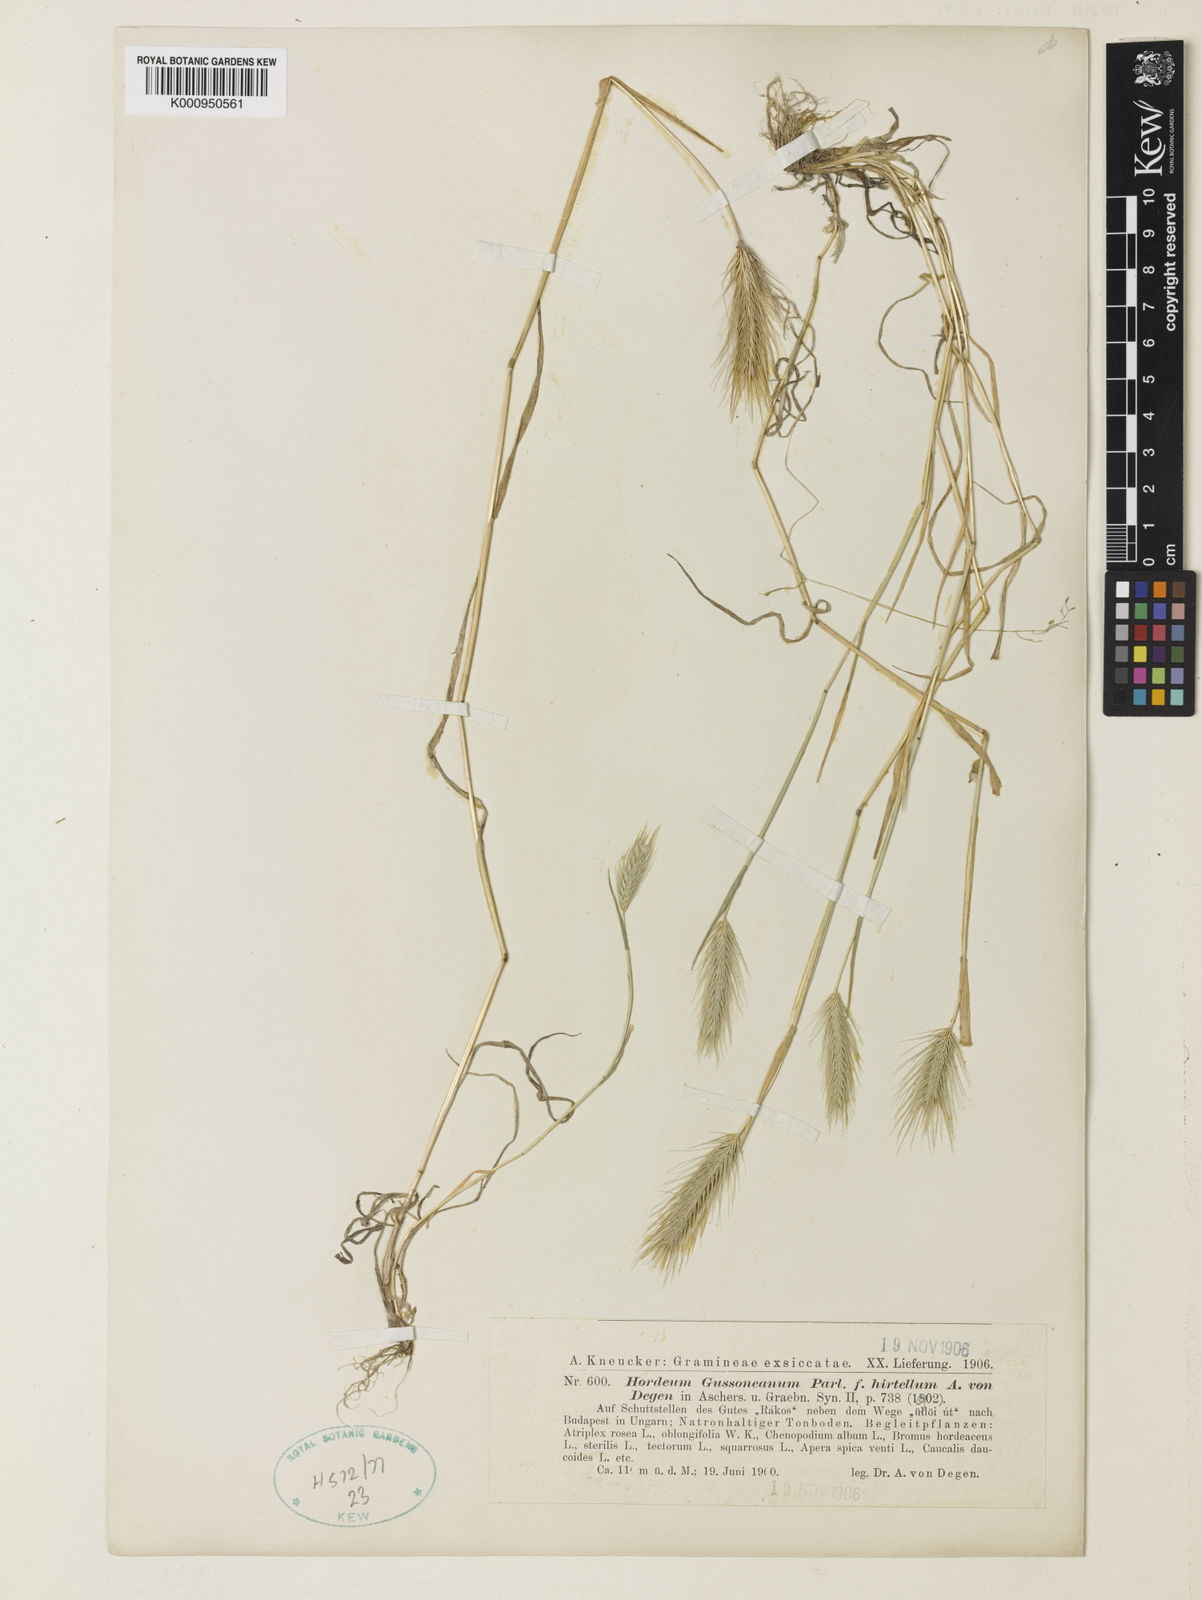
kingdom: Plantae
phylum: Tracheophyta
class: Liliopsida
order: Poales
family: Poaceae
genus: Hordeum
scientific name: Hordeum marinum
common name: Sea barley
